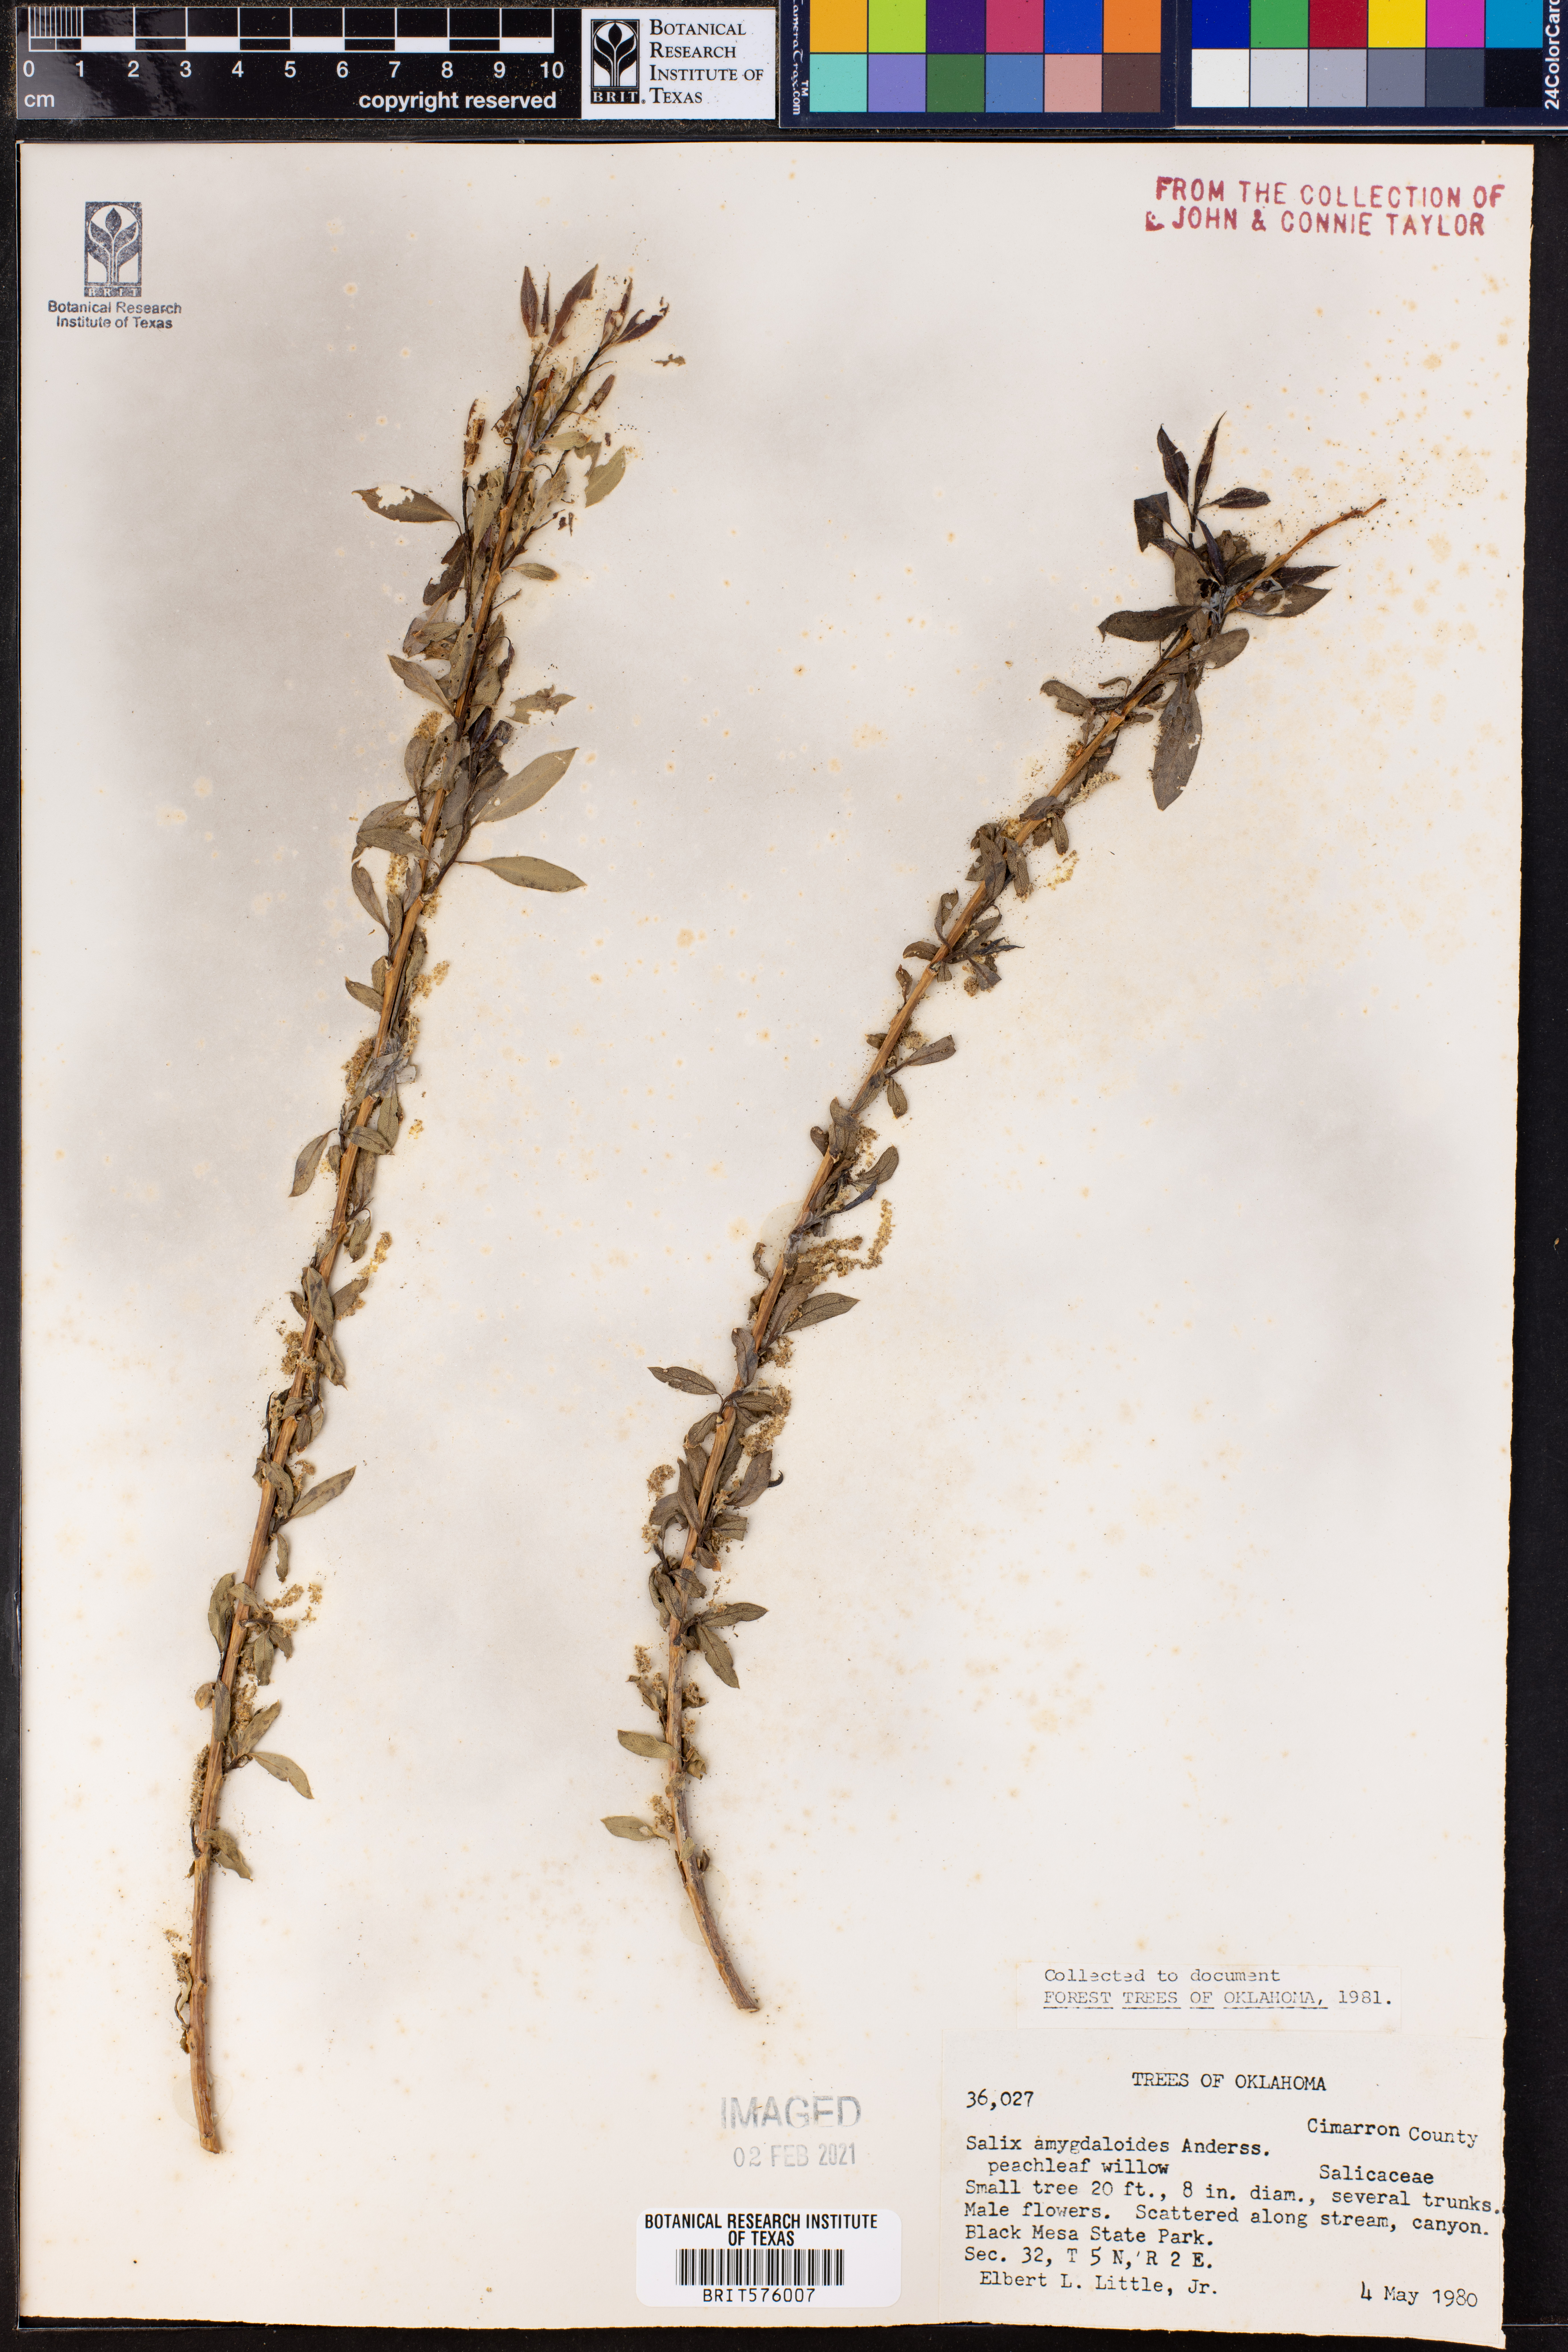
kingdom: Plantae
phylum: Tracheophyta
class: Magnoliopsida
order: Malpighiales
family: Salicaceae
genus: Salix
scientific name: Salix amygdaloides
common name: Peach leaf willow
